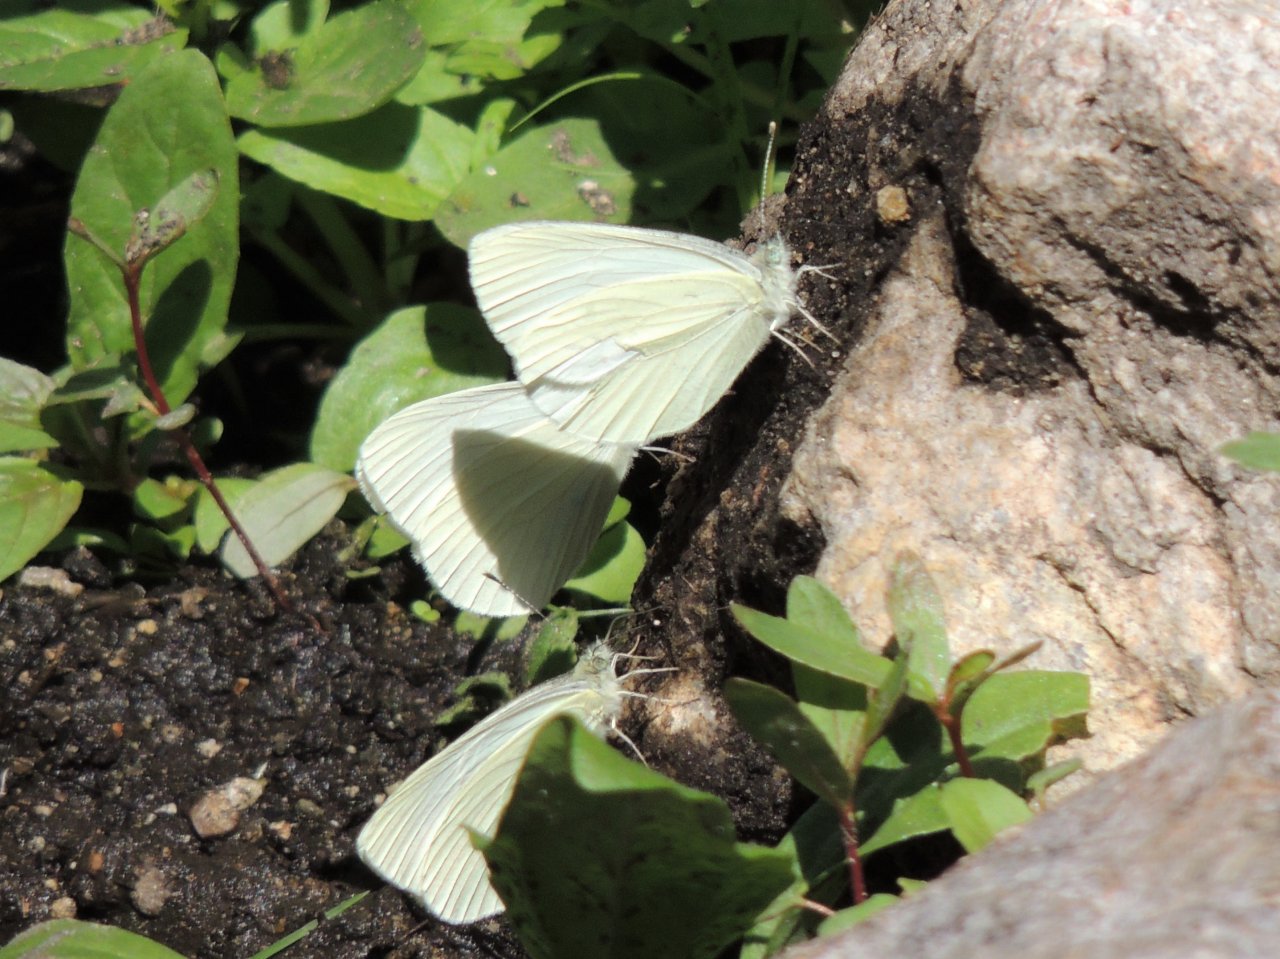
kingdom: Animalia
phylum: Arthropoda
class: Insecta
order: Lepidoptera
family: Pieridae
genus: Pieris
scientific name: Pieris marginalis
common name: Margined White
